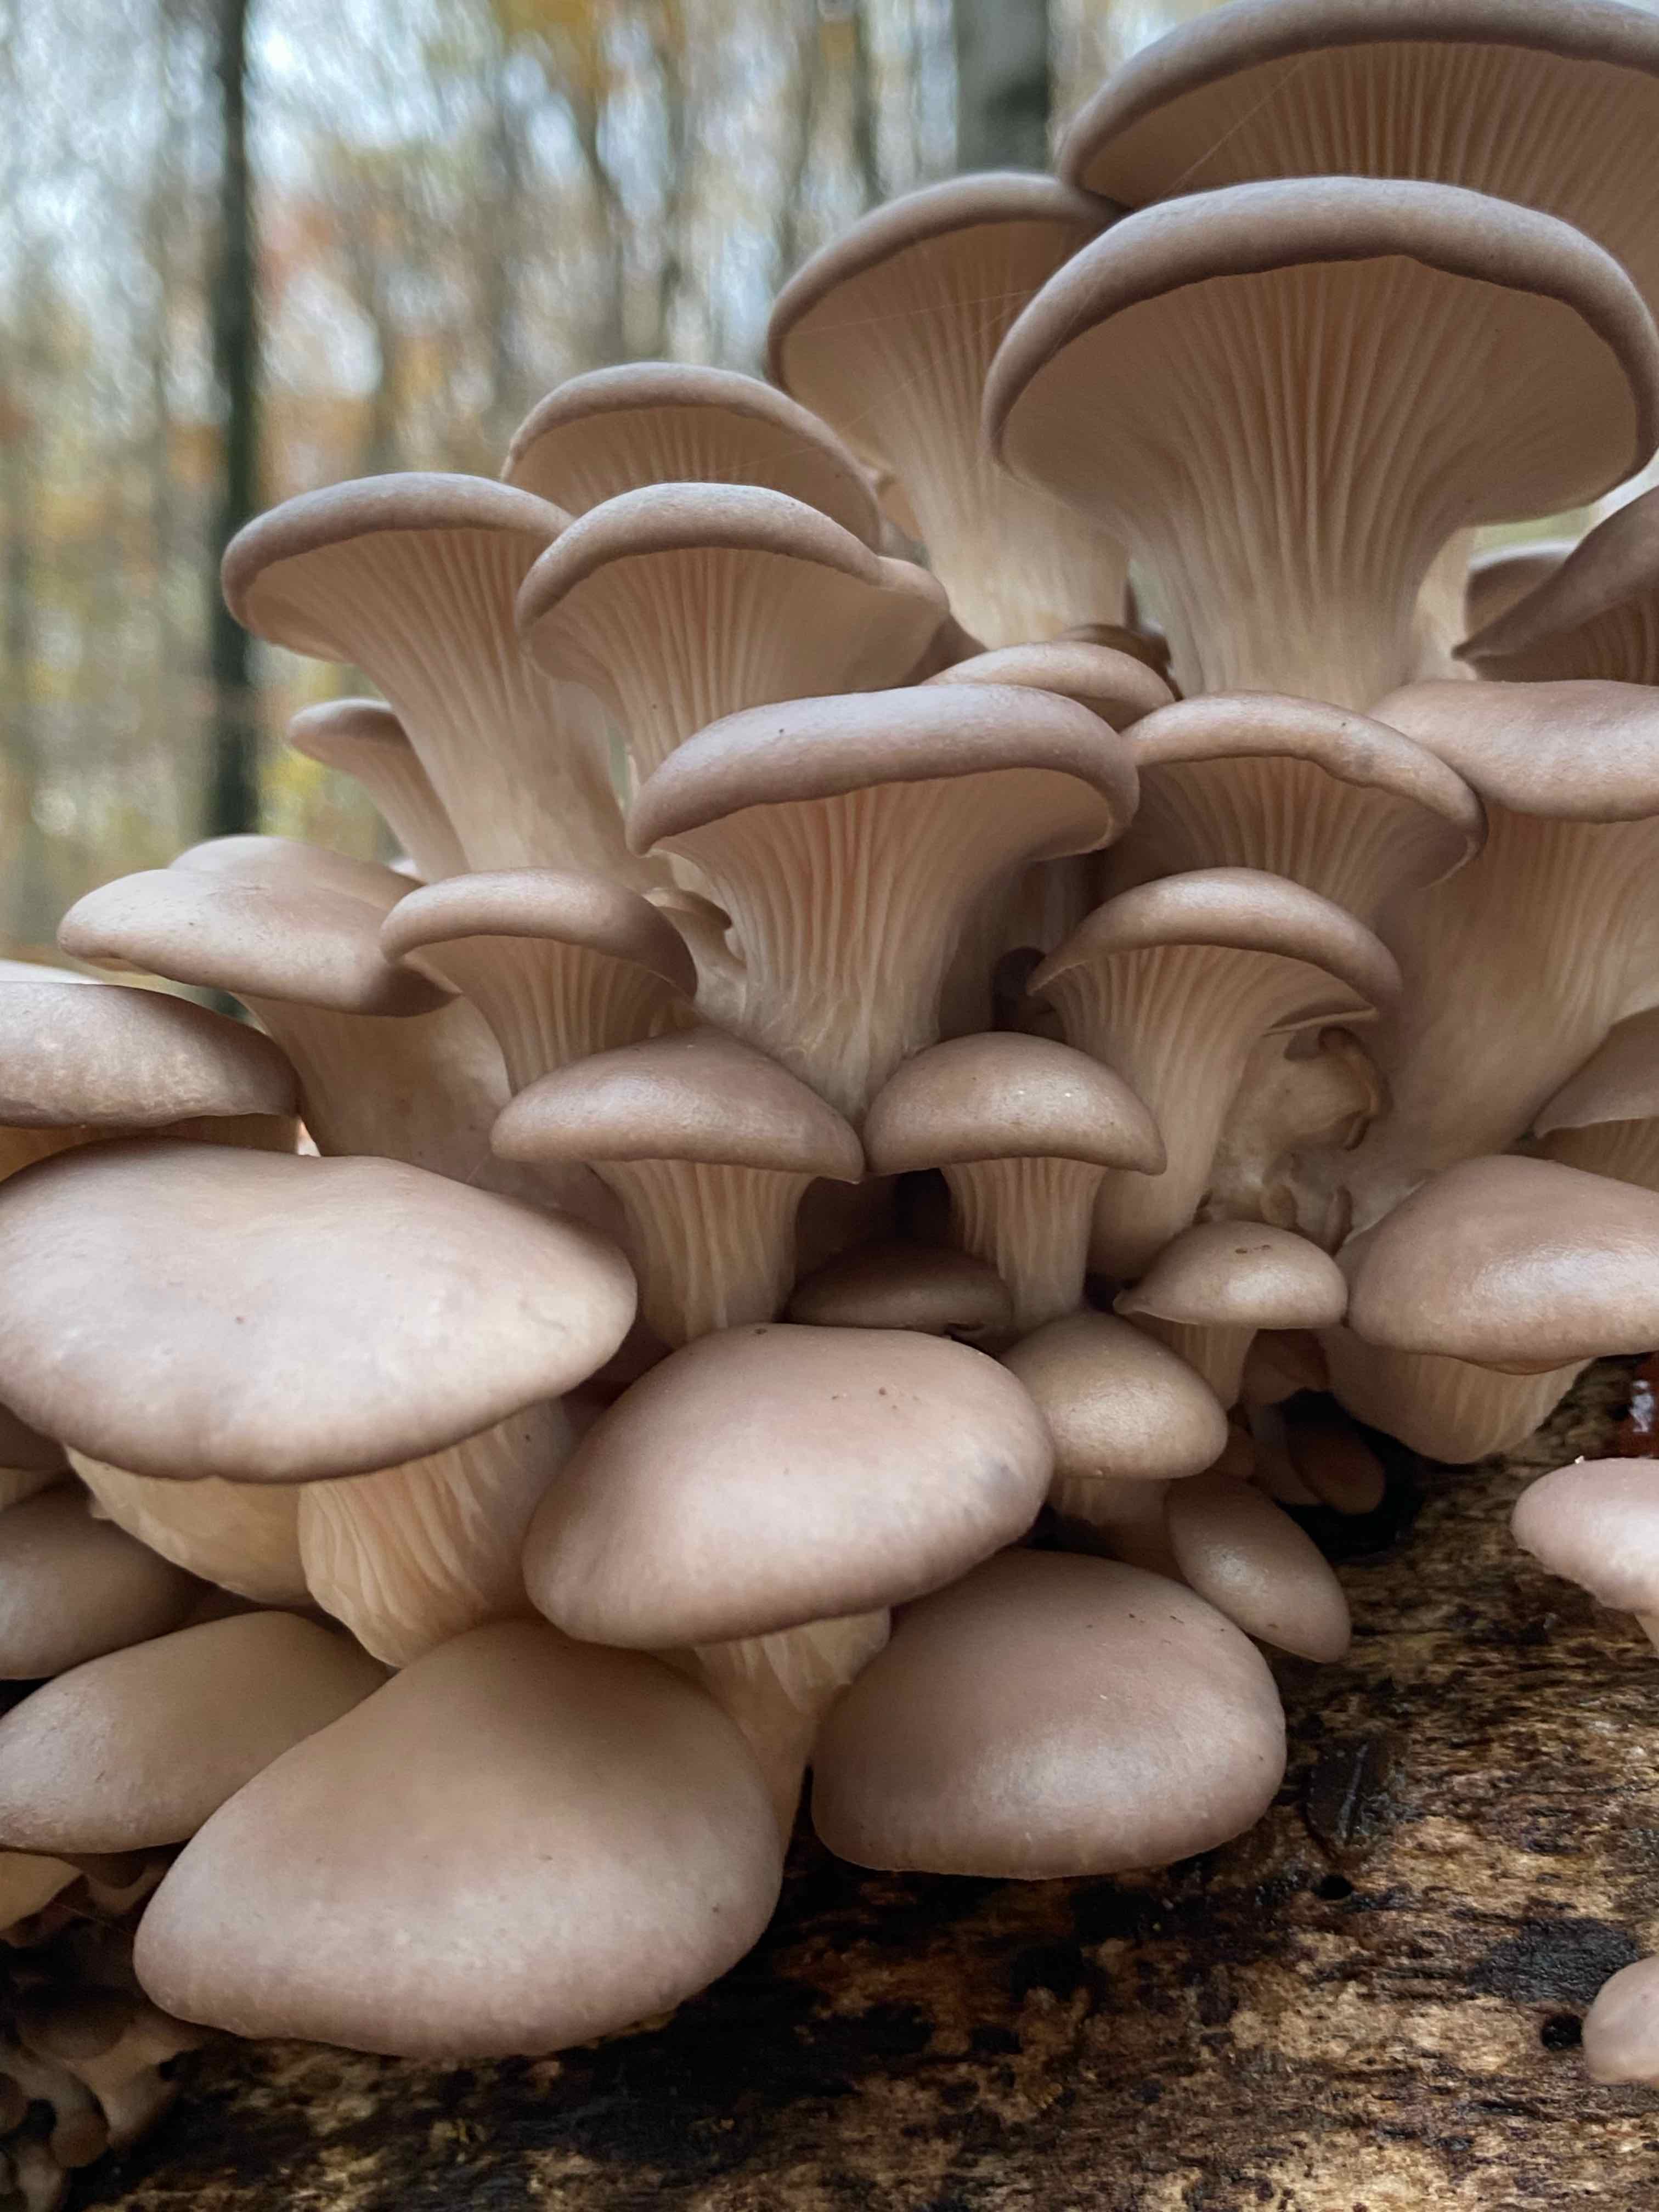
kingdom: Fungi
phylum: Basidiomycota
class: Agaricomycetes
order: Agaricales
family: Pleurotaceae
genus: Pleurotus
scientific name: Pleurotus ostreatus
